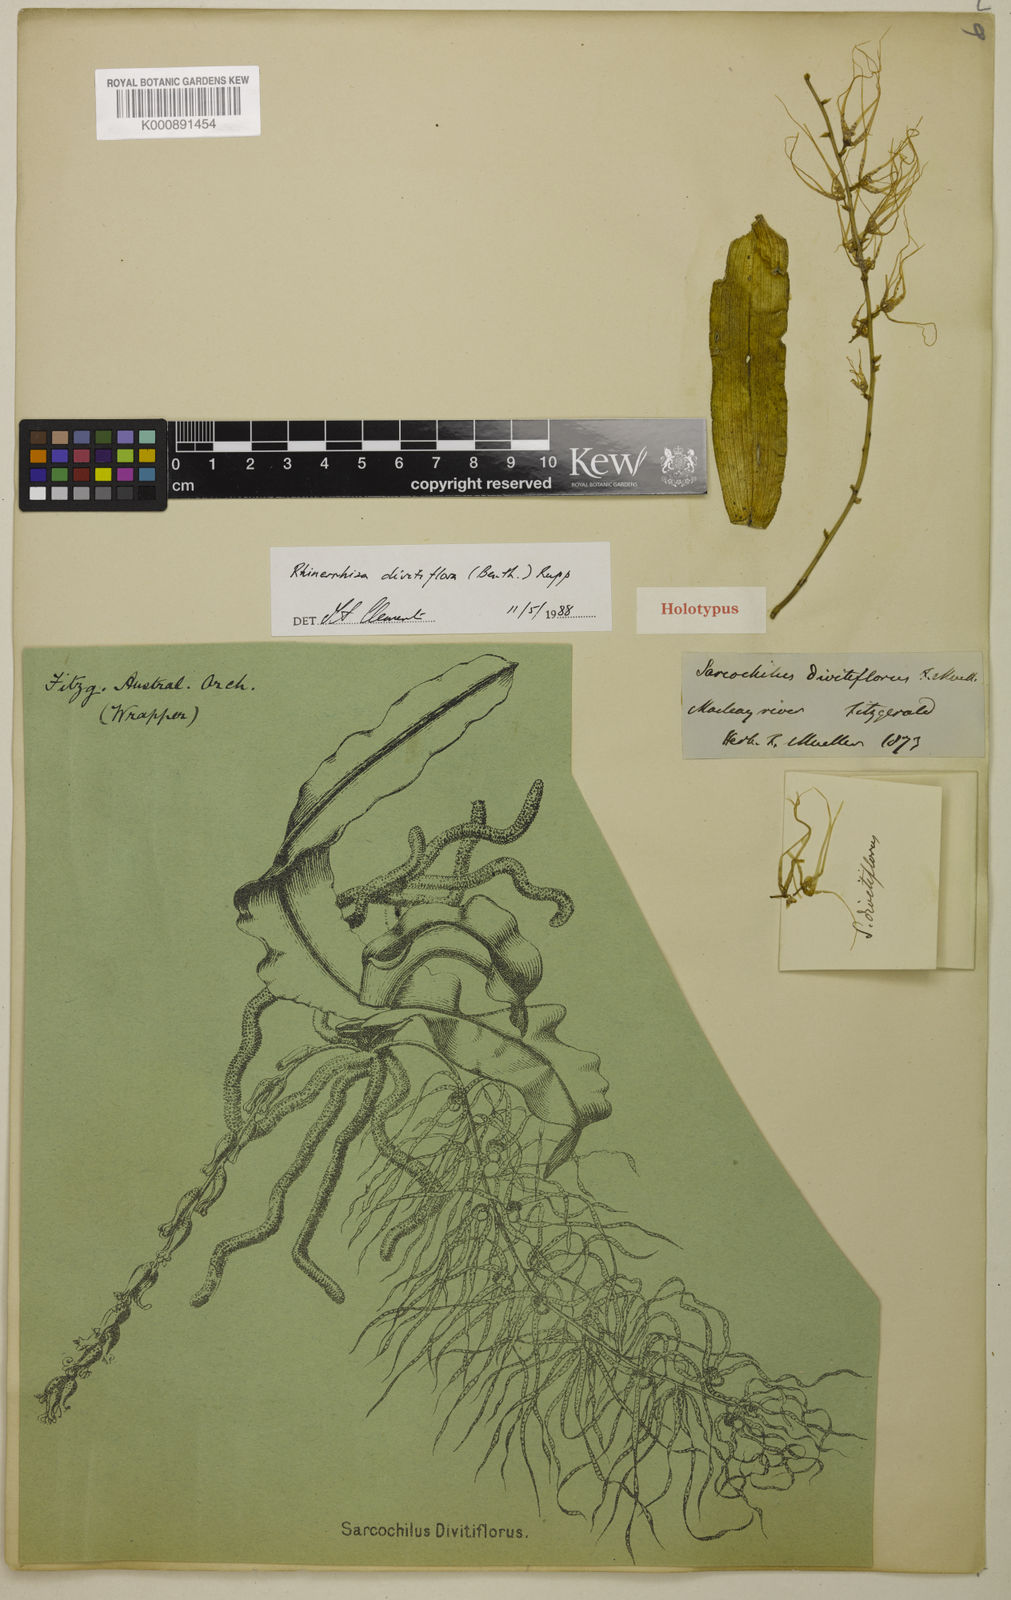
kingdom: Plantae
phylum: Tracheophyta
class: Liliopsida
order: Asparagales
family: Orchidaceae
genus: Rhinerrhiza
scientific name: Rhinerrhiza divitiflora
